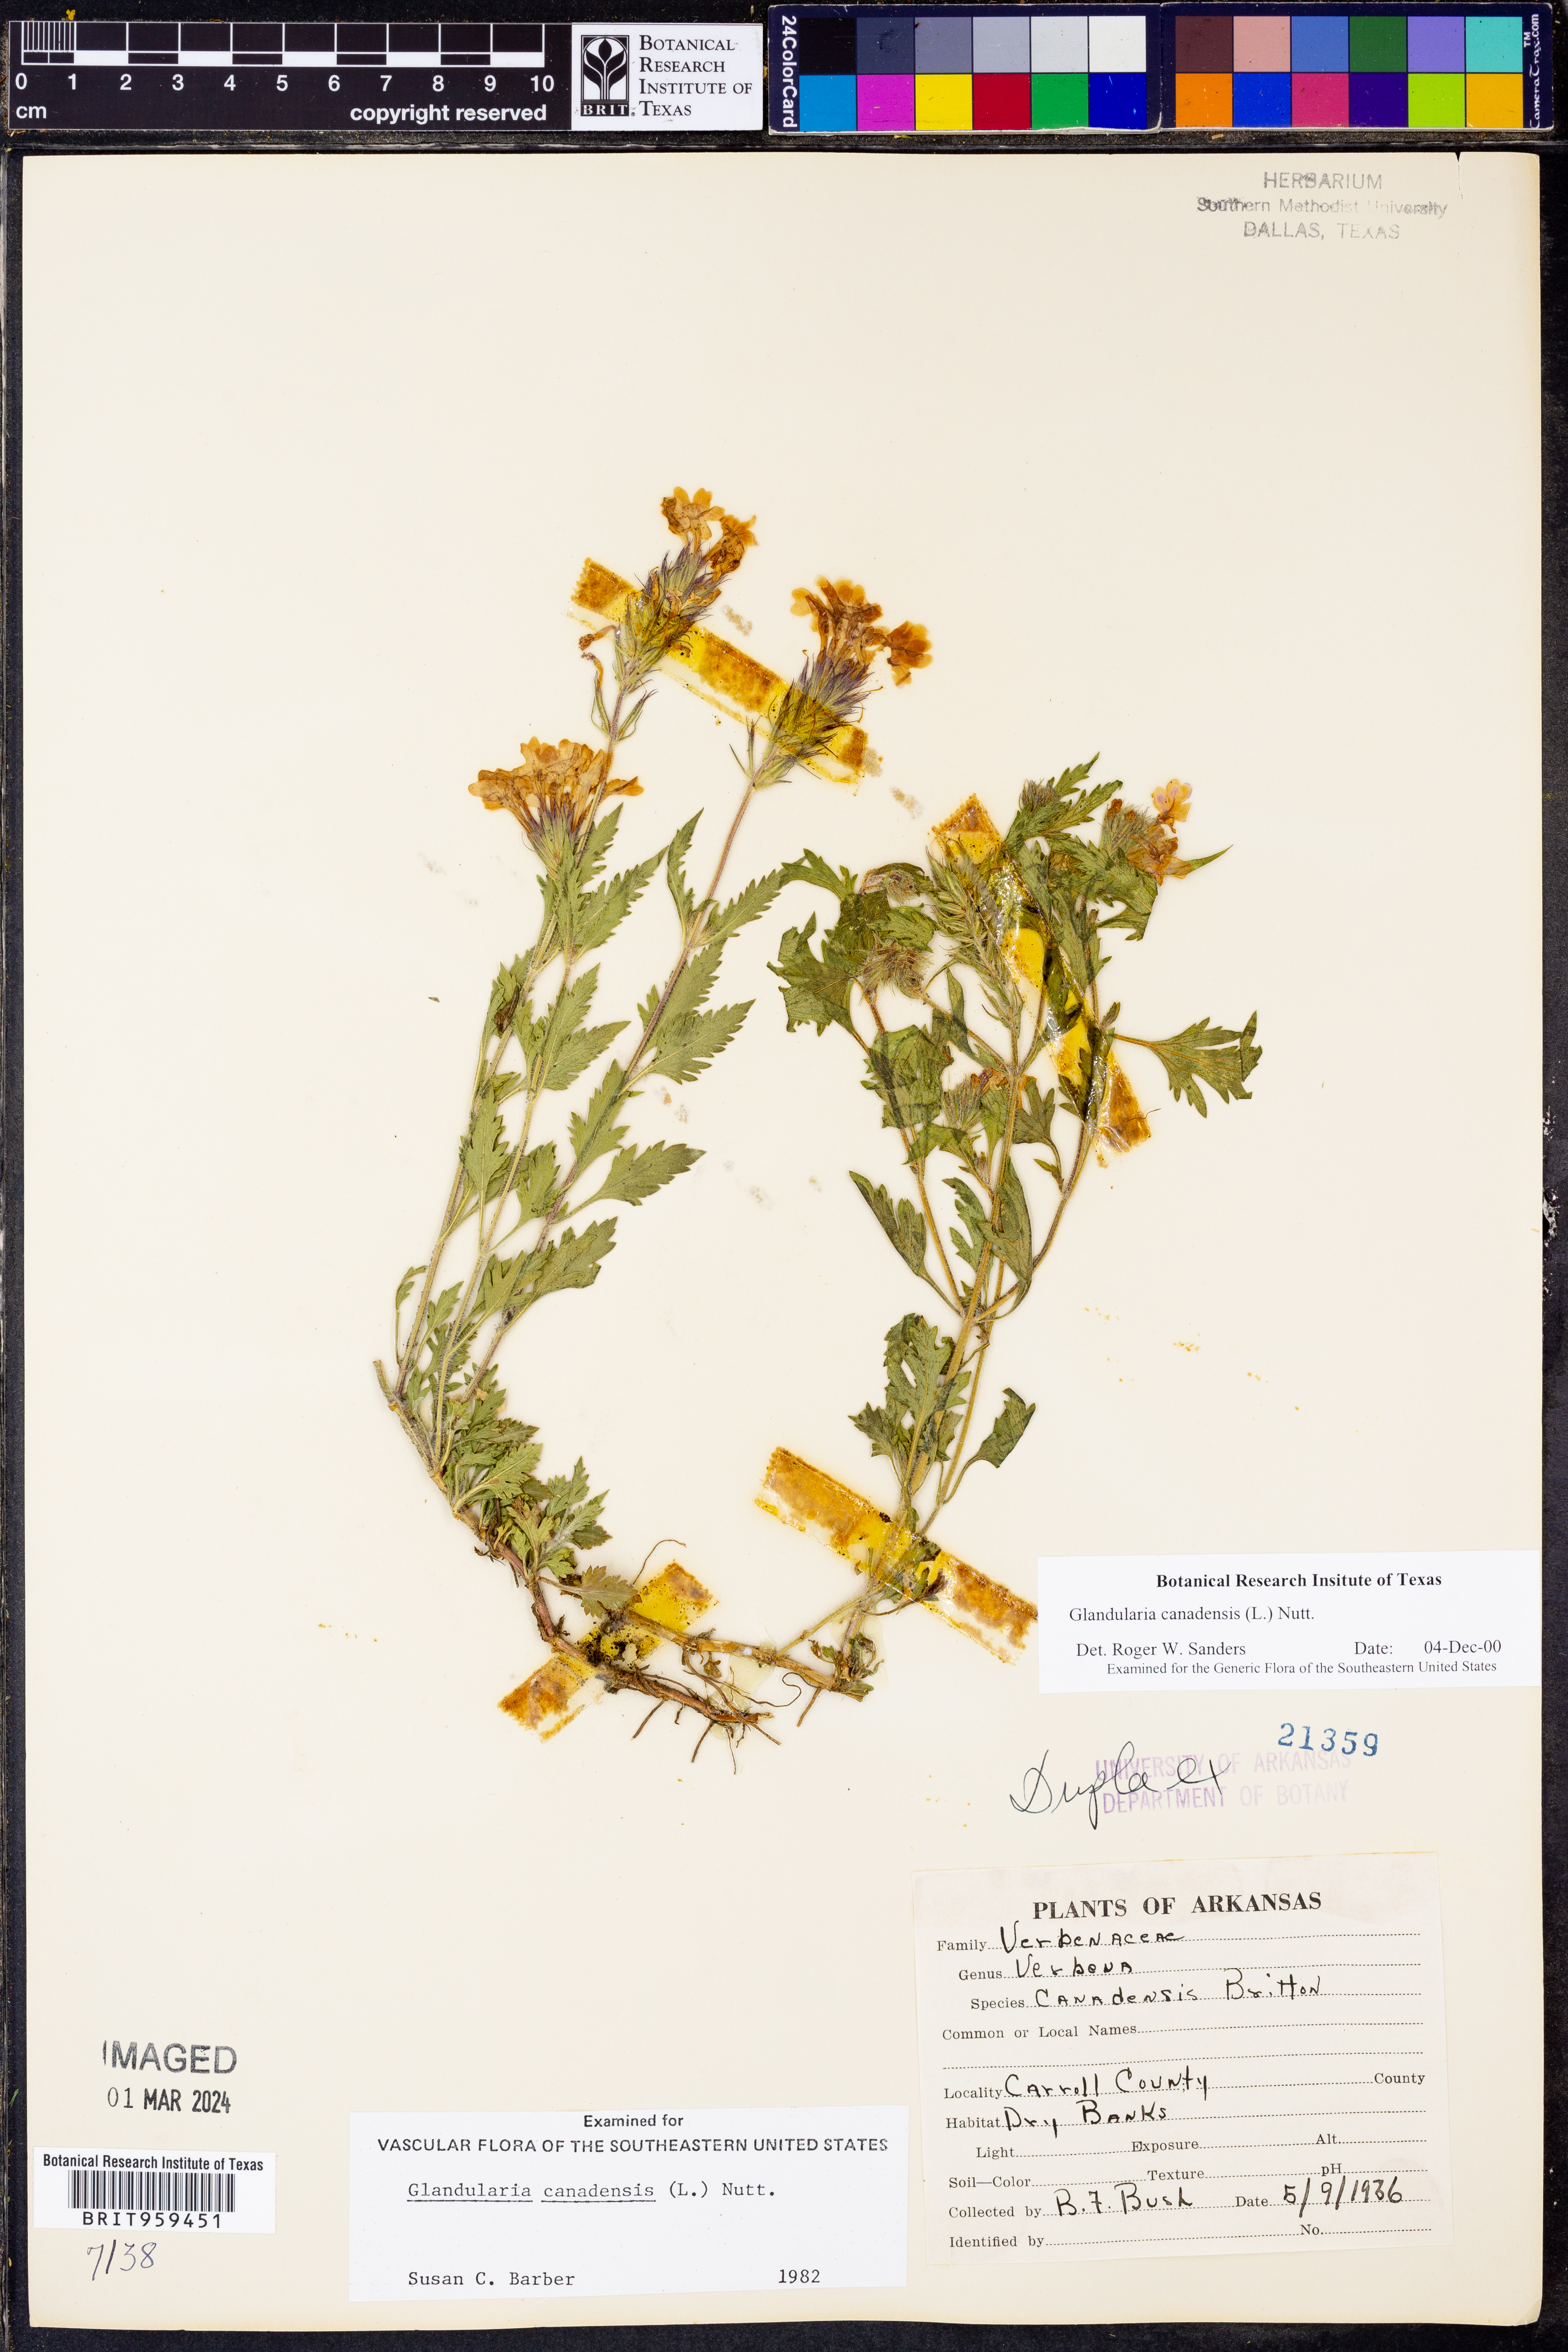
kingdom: Plantae
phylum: Tracheophyta
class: Magnoliopsida
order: Lamiales
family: Verbenaceae
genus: Verbena
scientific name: Verbena canadensis
